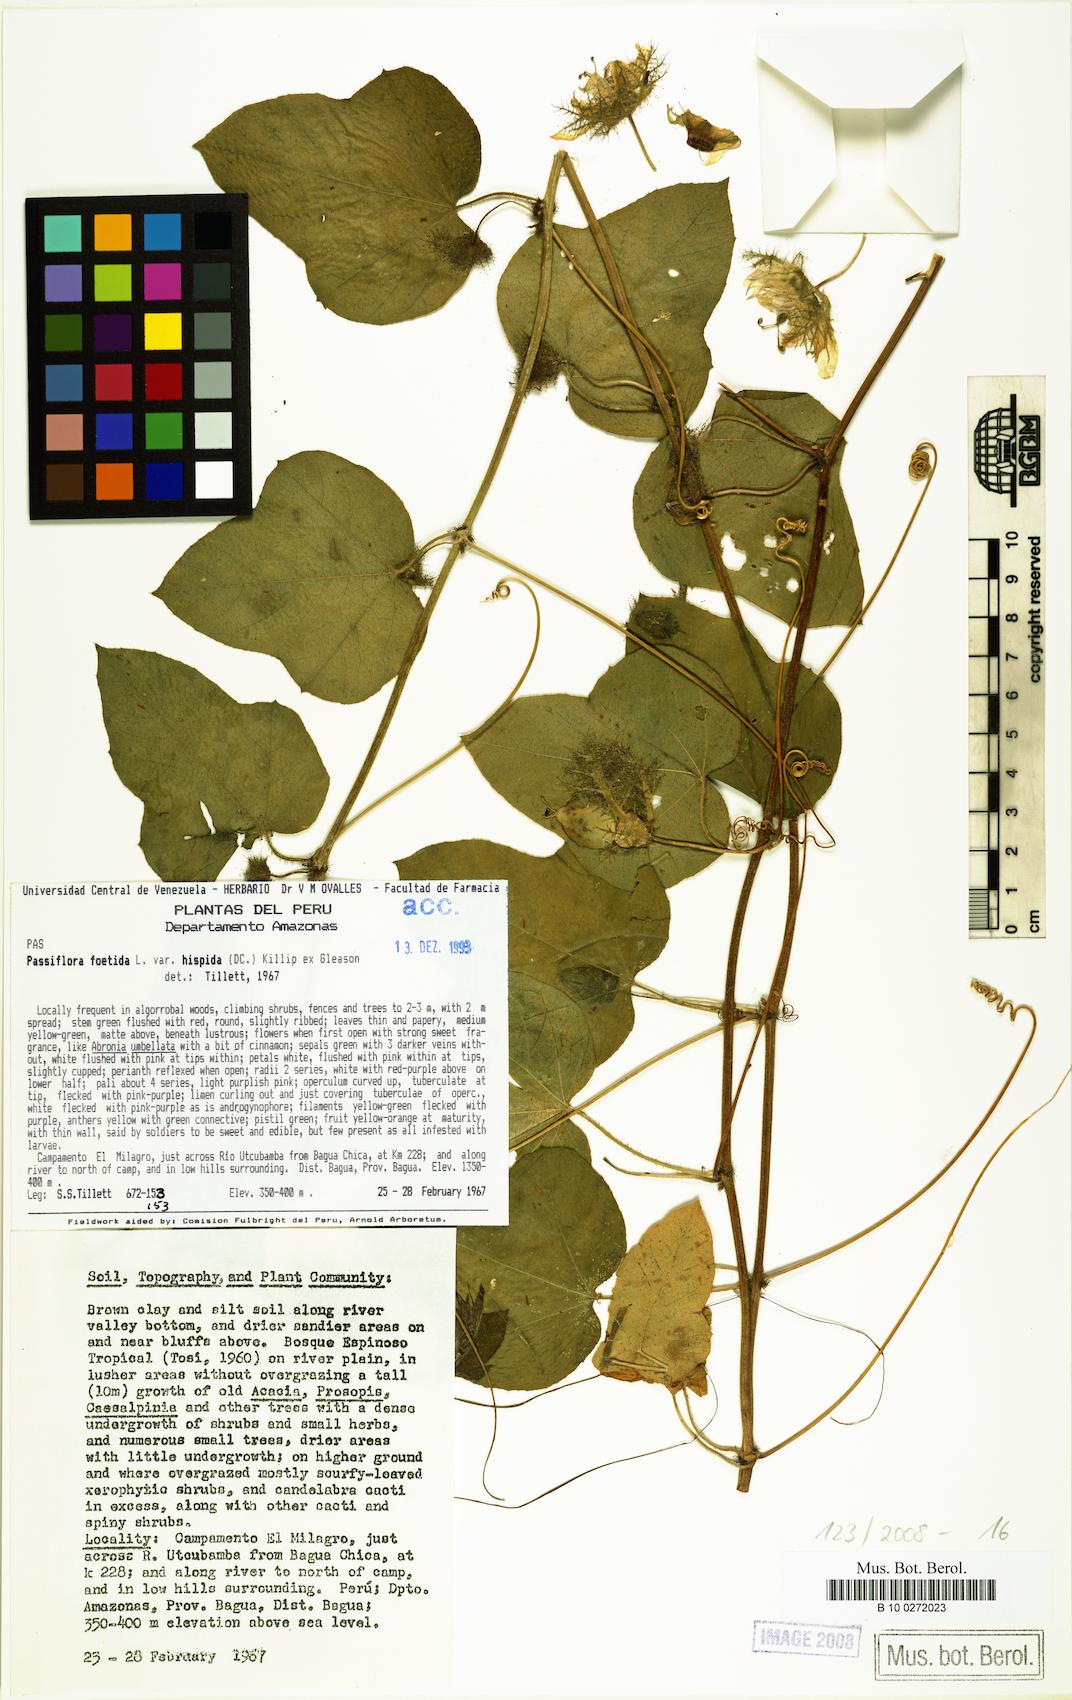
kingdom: Plantae
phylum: Tracheophyta
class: Magnoliopsida
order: Malpighiales
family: Passifloraceae
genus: Passiflora
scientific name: Passiflora vesicaria
